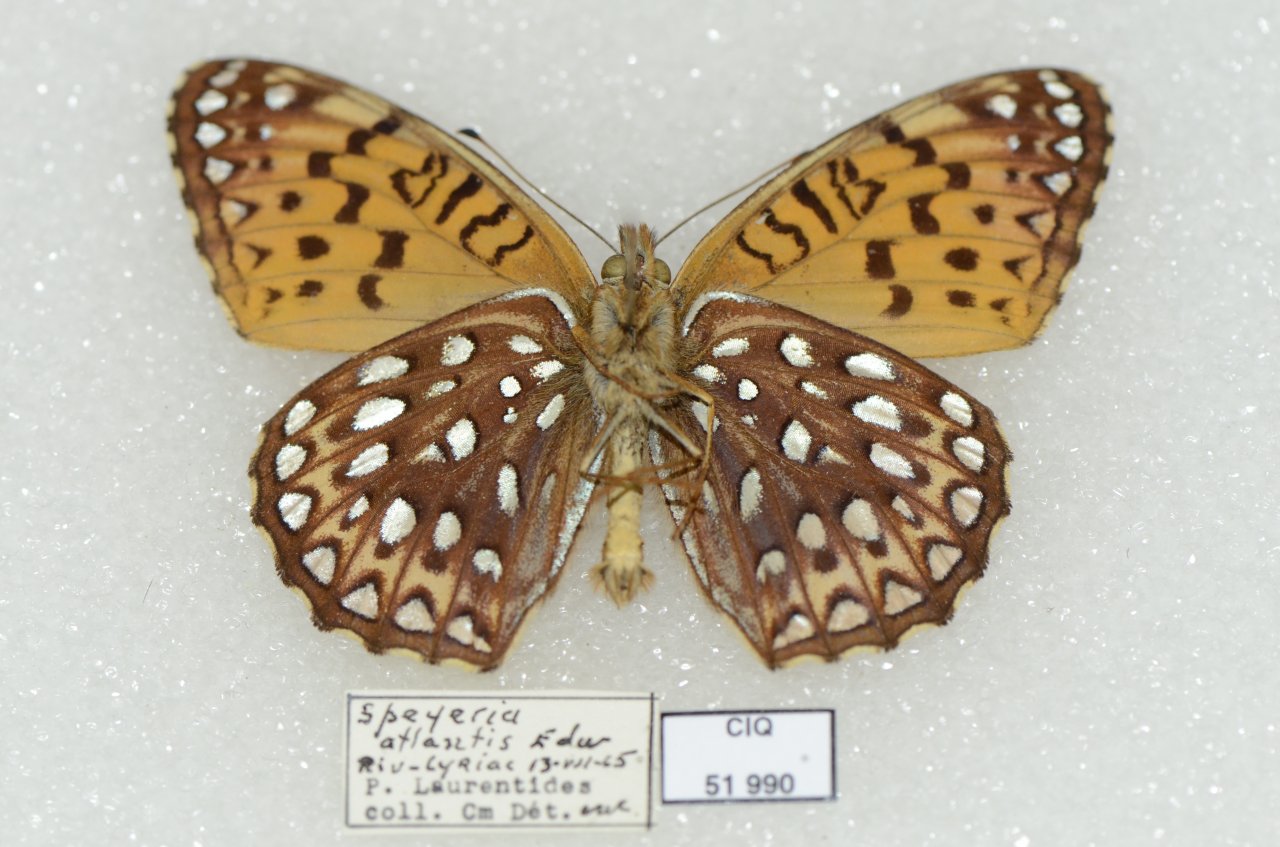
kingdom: Animalia
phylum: Arthropoda
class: Insecta
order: Lepidoptera
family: Nymphalidae
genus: Speyeria
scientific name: Speyeria atlantis
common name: Atlantis Fritillary
